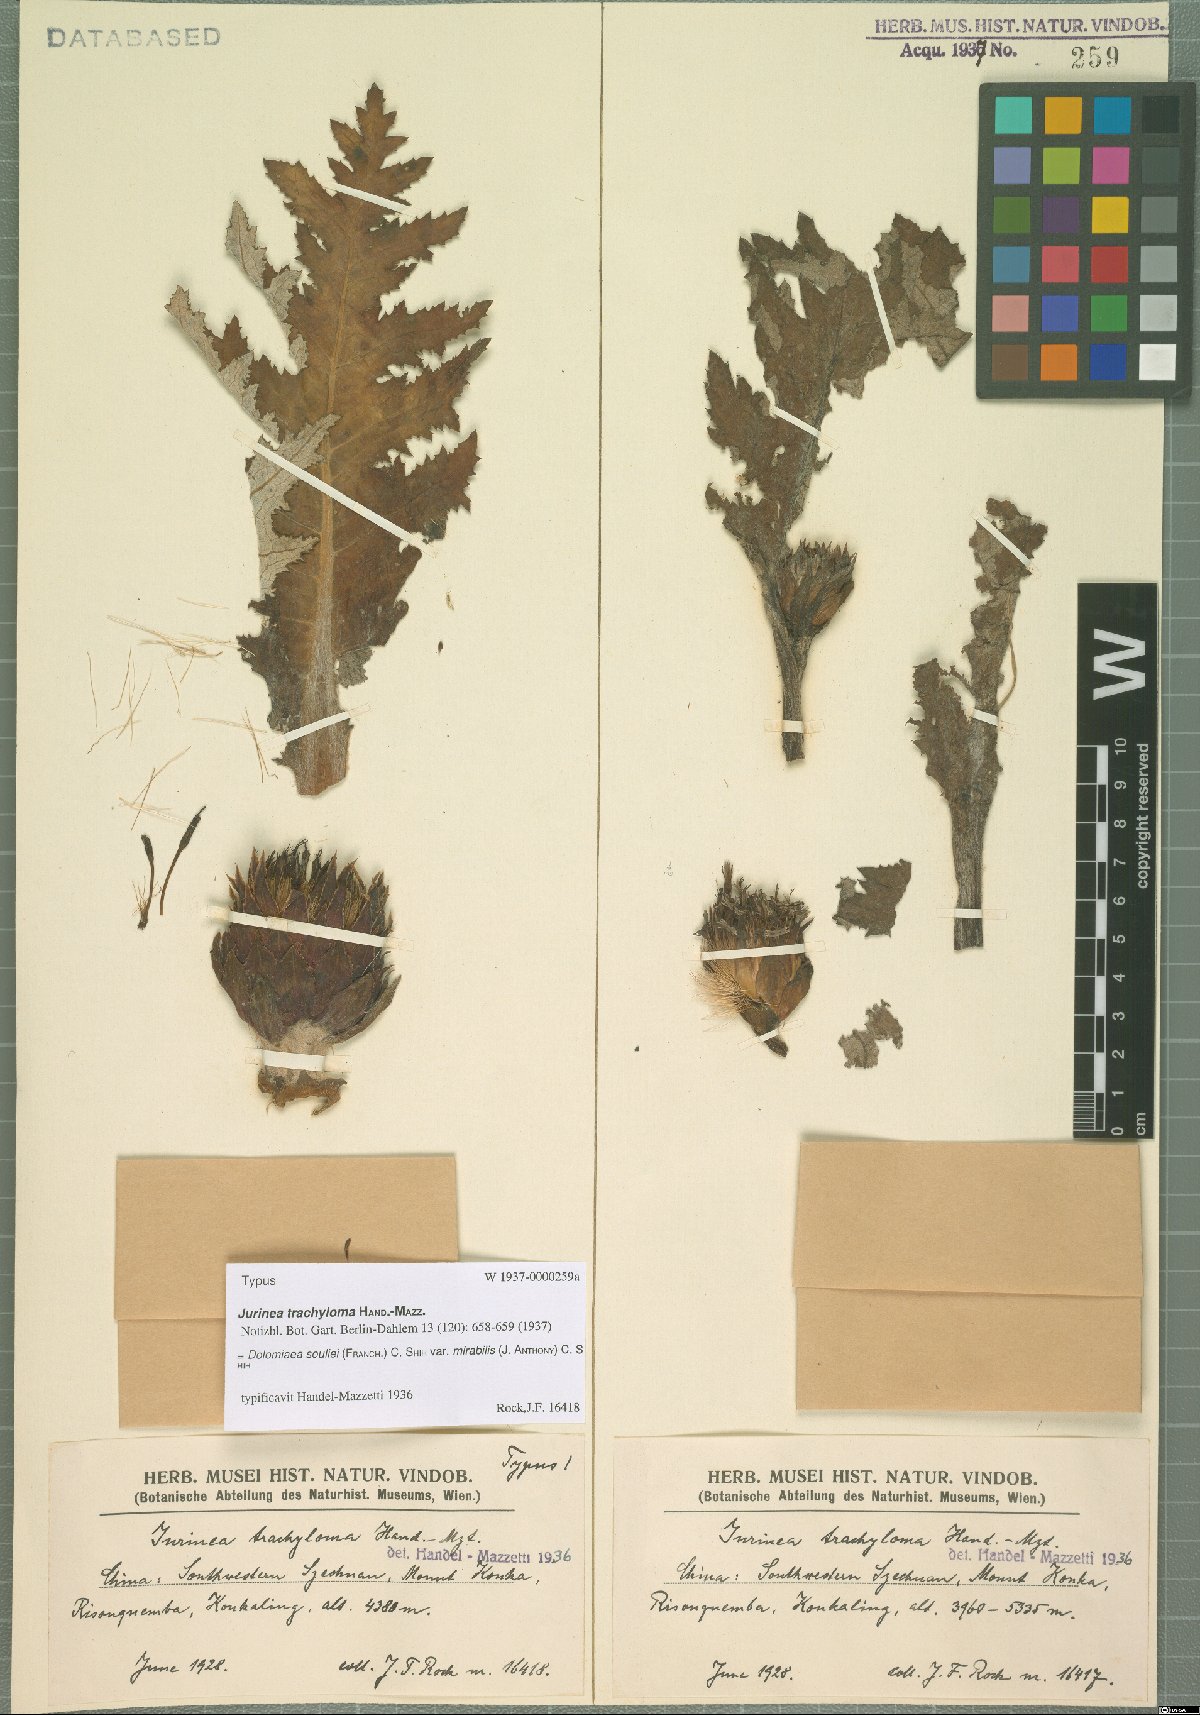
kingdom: Plantae
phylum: Tracheophyta
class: Magnoliopsida
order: Asterales
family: Asteraceae
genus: Dolomiaea
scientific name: Dolomiaea souliei
